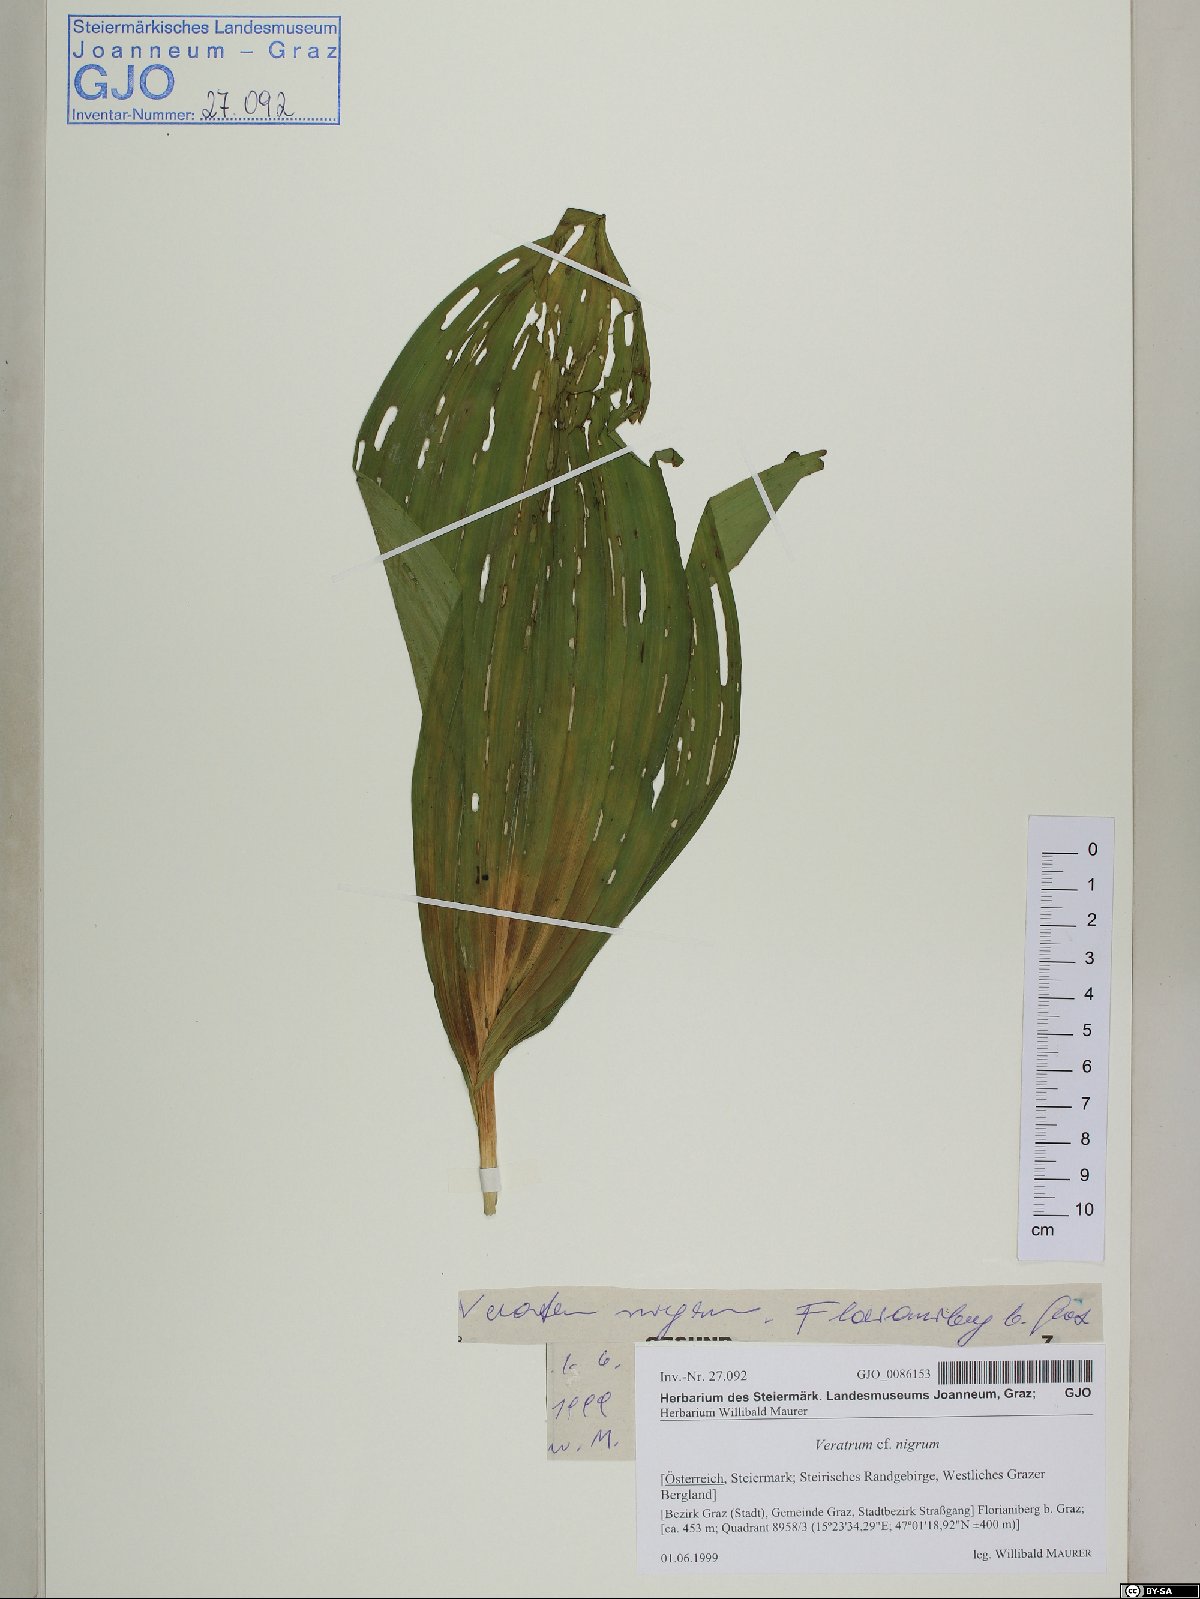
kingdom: Plantae
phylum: Tracheophyta
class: Liliopsida
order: Liliales
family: Melanthiaceae
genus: Veratrum
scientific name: Veratrum nigrum
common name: Black veratrum
